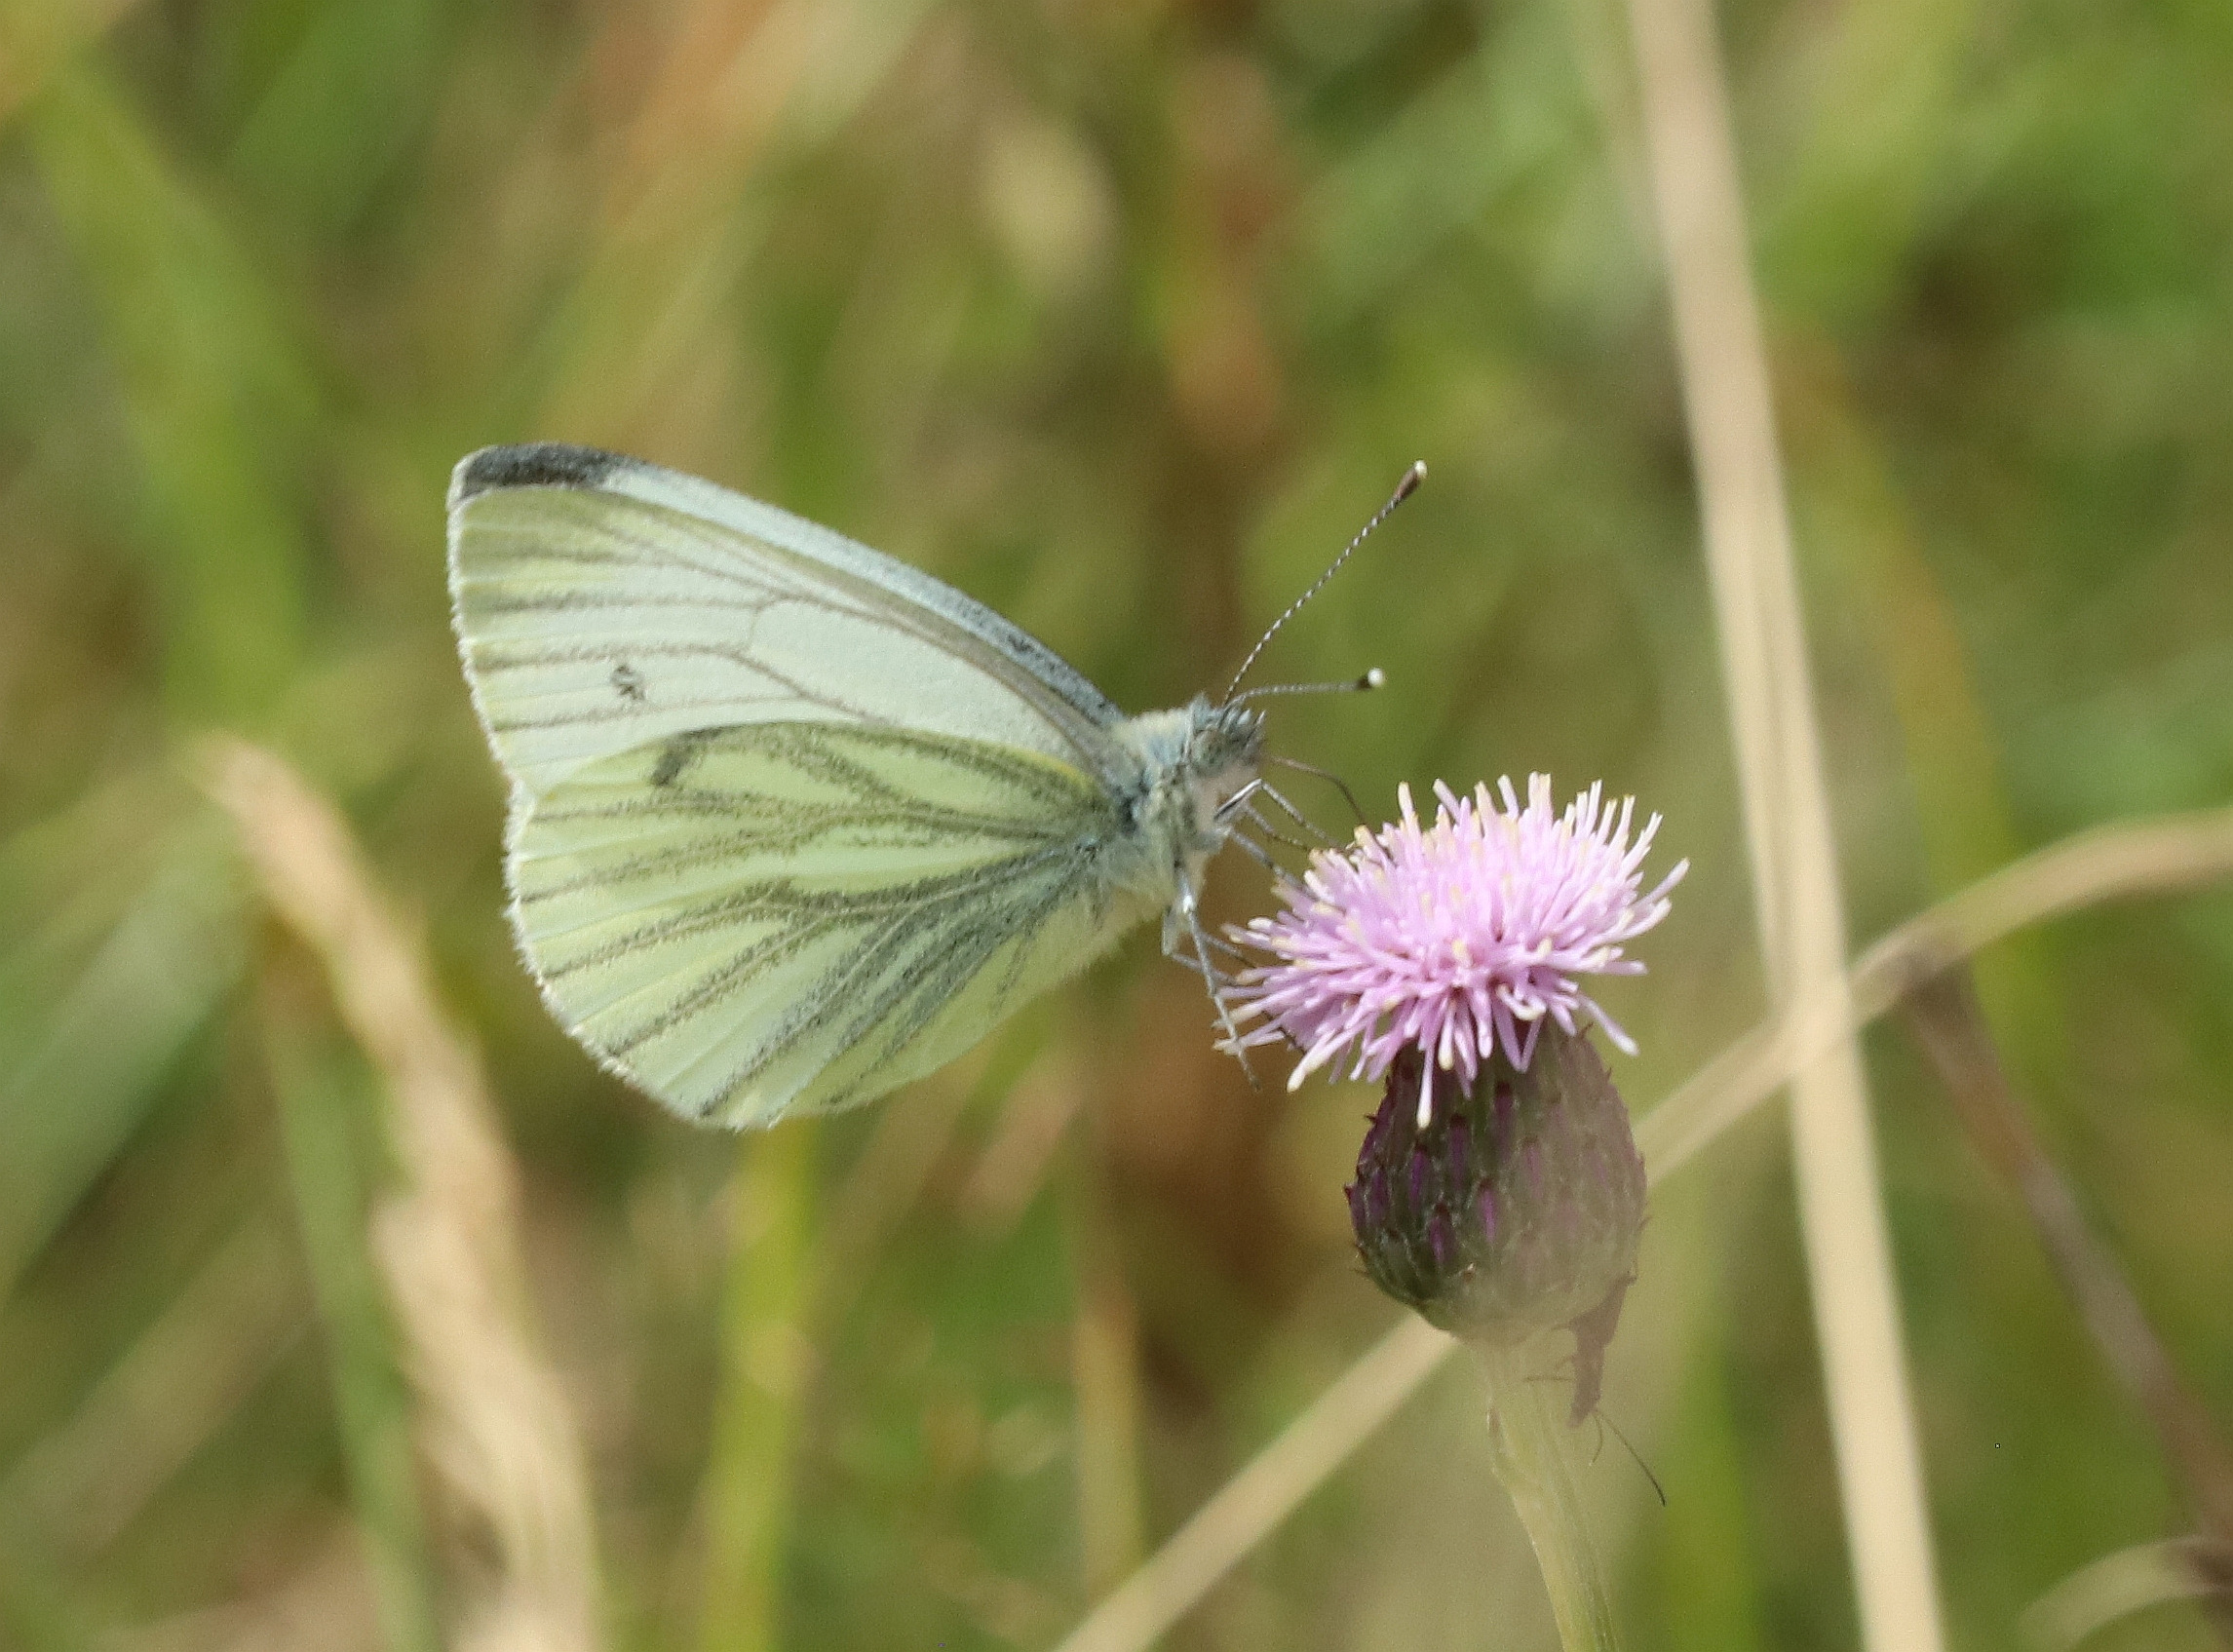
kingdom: Animalia
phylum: Arthropoda
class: Insecta
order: Lepidoptera
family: Pieridae
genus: Pieris
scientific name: Pieris napi
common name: Grønåret kålsommerfugl
